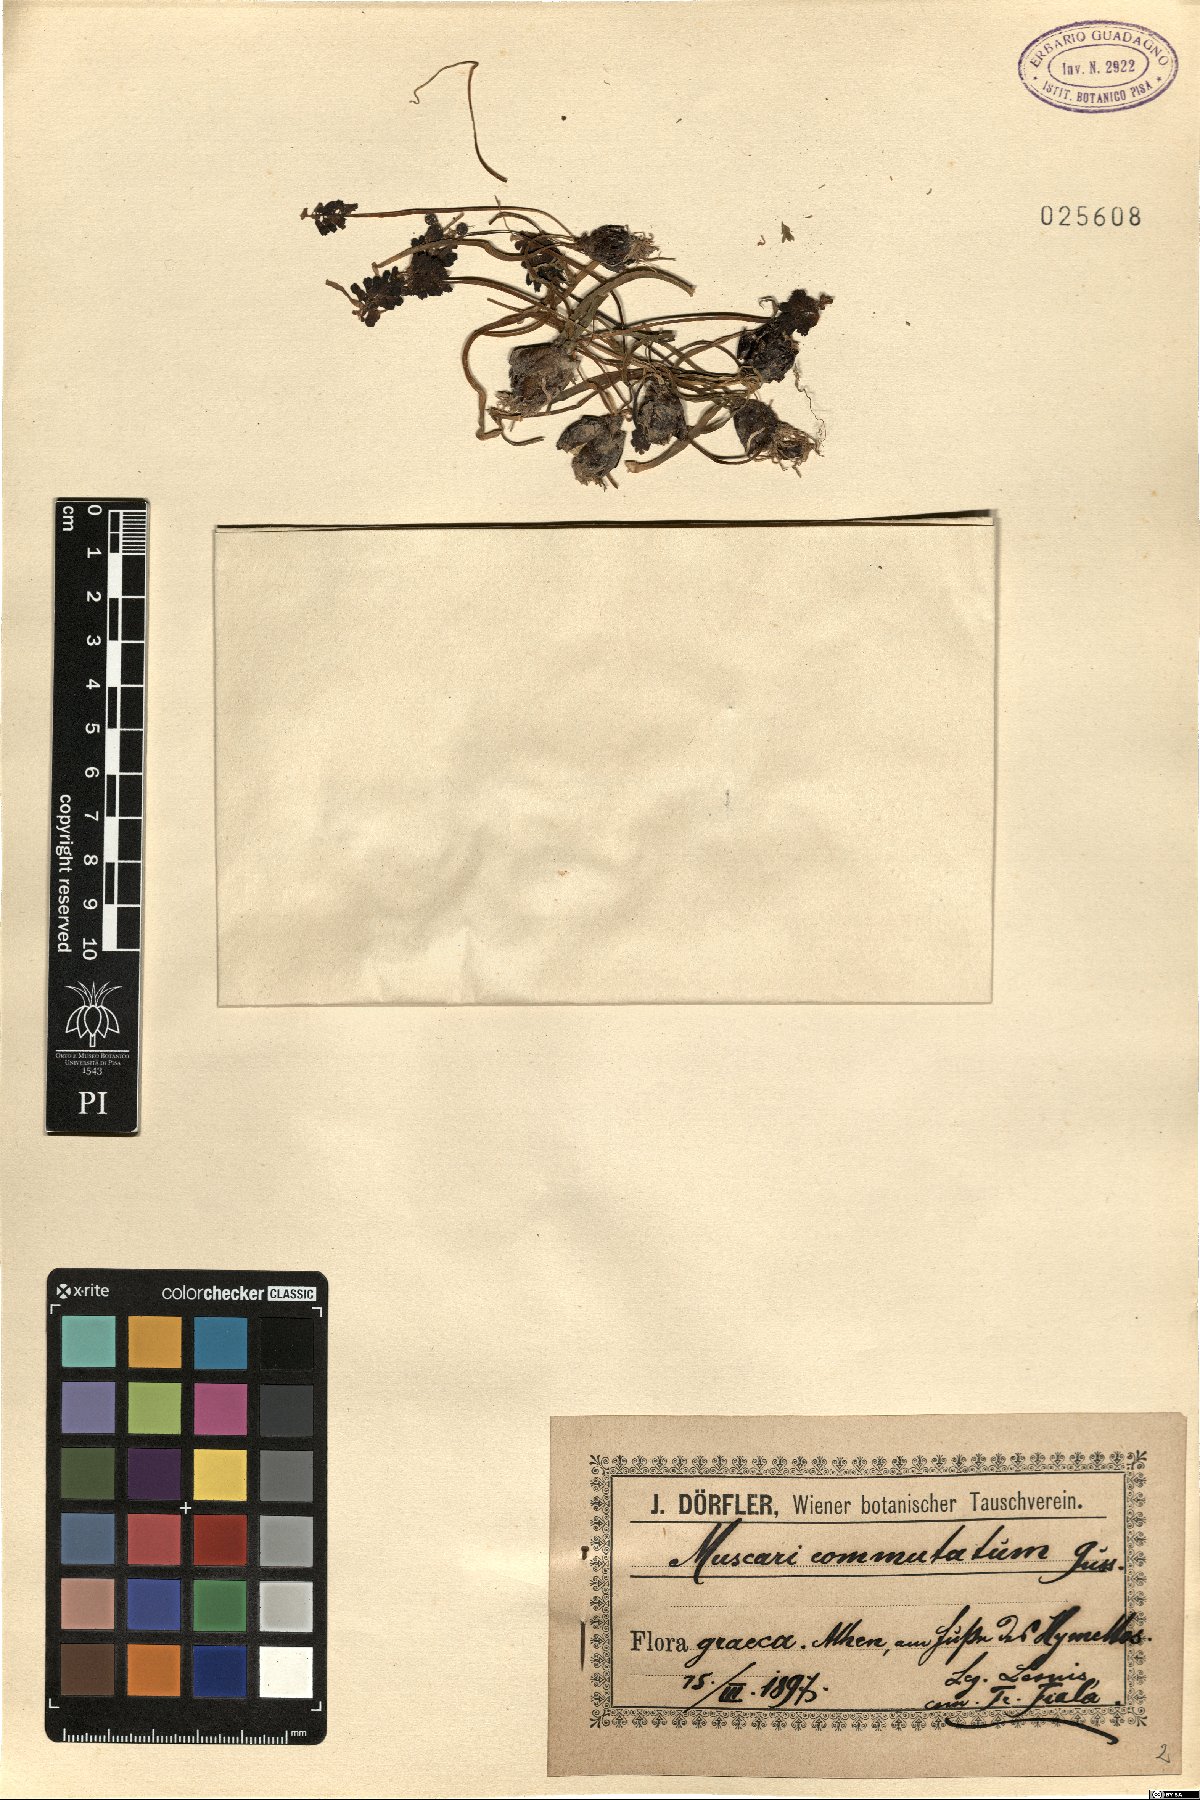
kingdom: Plantae
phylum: Tracheophyta
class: Liliopsida
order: Asparagales
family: Asparagaceae
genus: Muscari
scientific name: Muscari commutatum
